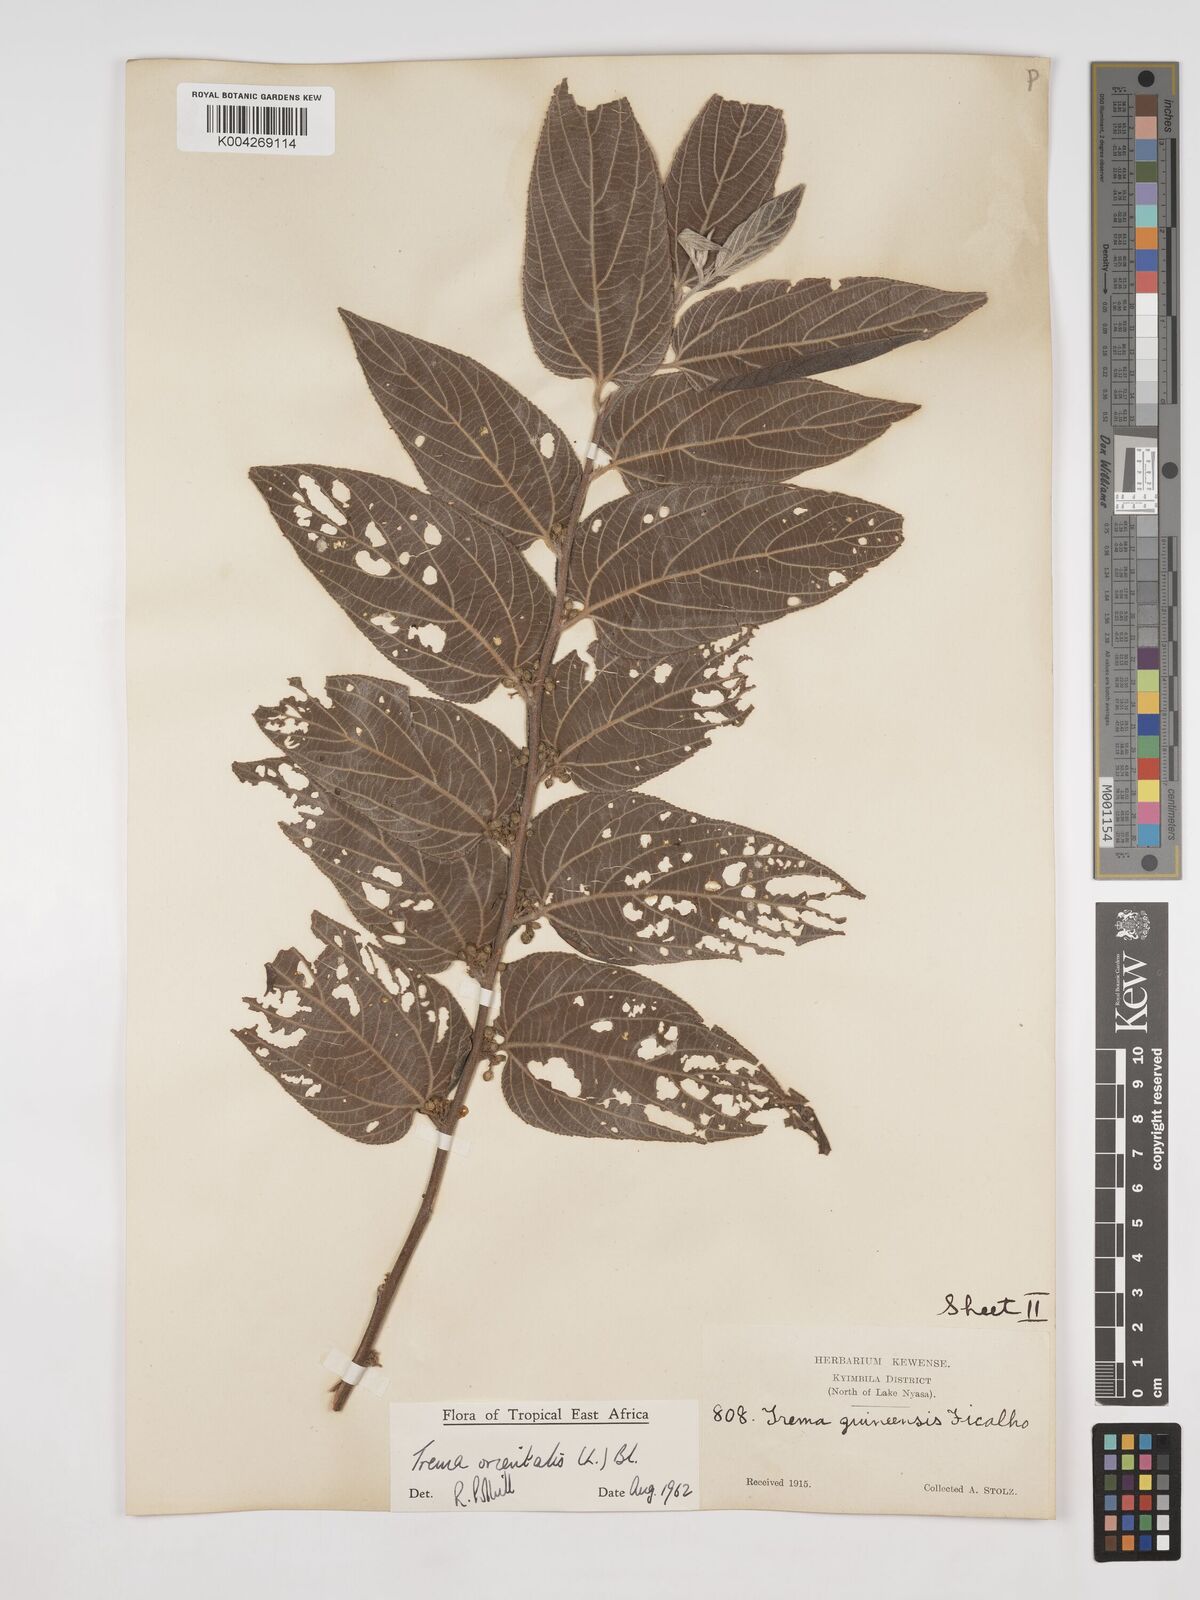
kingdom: Plantae
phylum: Tracheophyta
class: Magnoliopsida
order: Rosales
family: Cannabaceae
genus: Trema
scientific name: Trema orientale
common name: Indian charcoal tree
